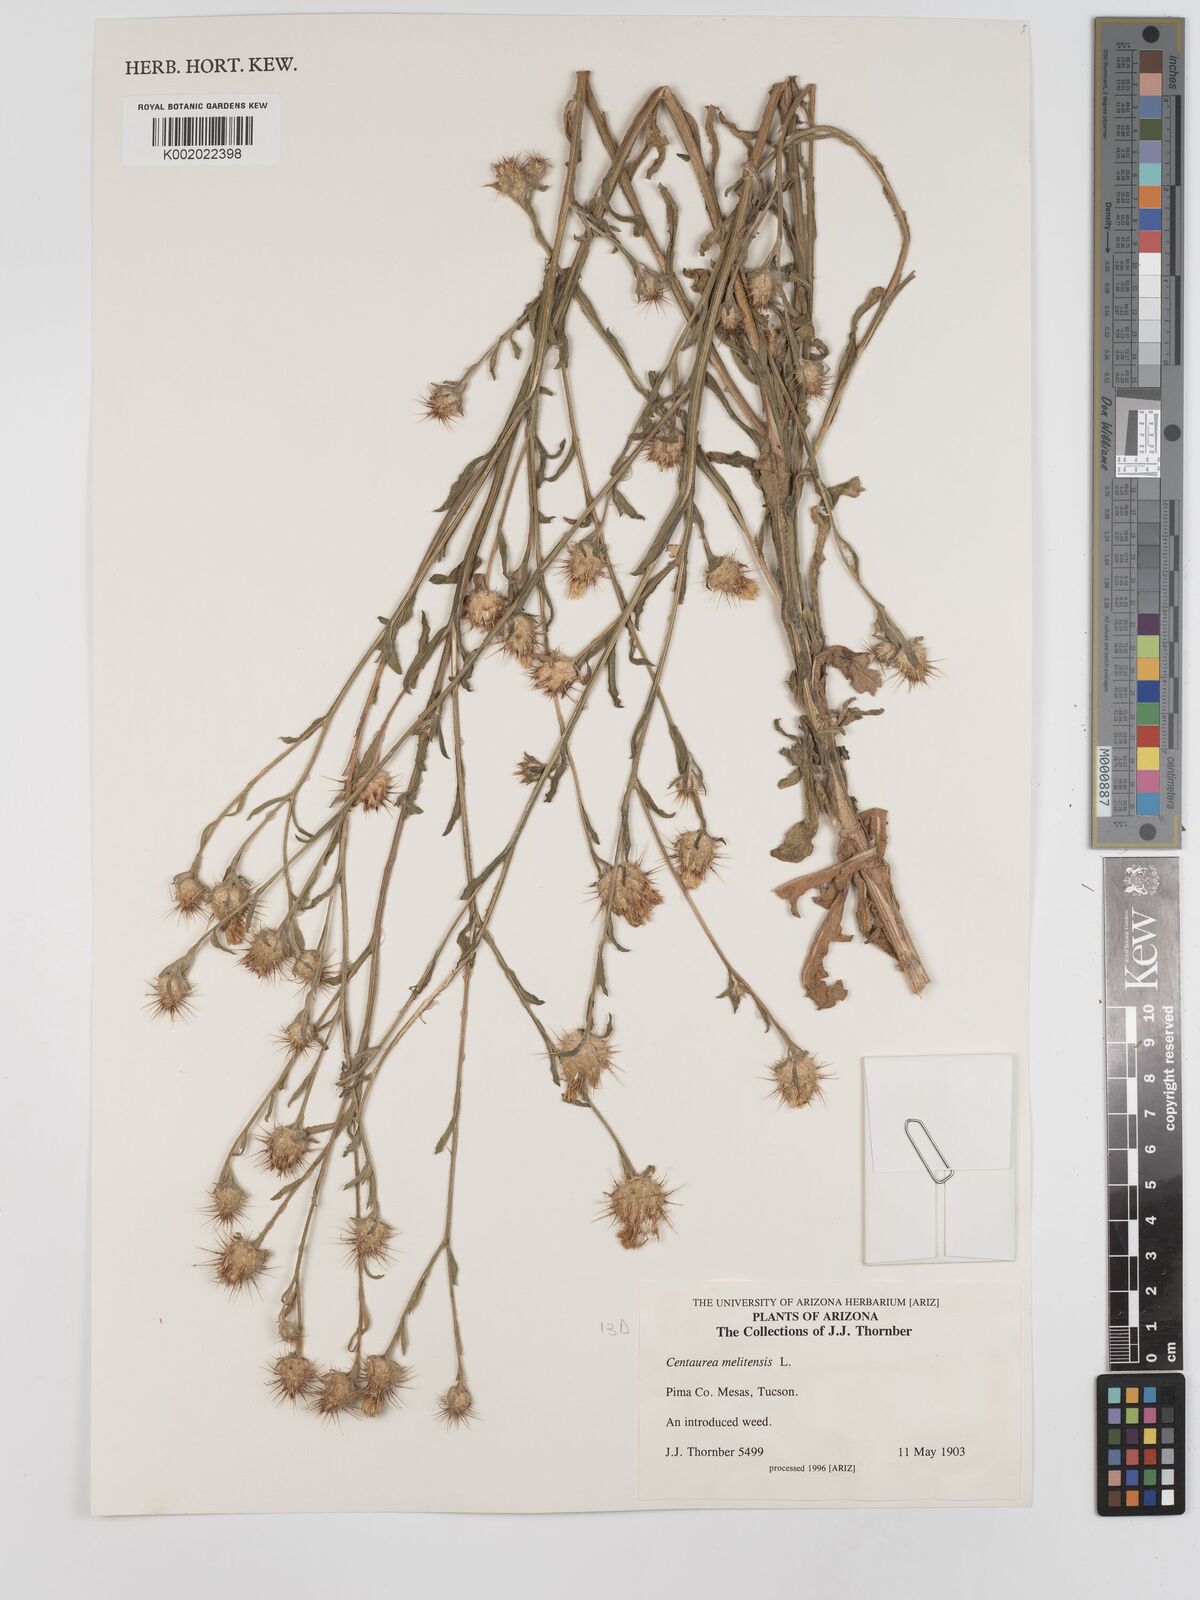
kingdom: Plantae
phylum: Tracheophyta
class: Magnoliopsida
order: Asterales
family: Asteraceae
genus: Centaurea
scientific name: Centaurea melitensis
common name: Maltese star-thistle
